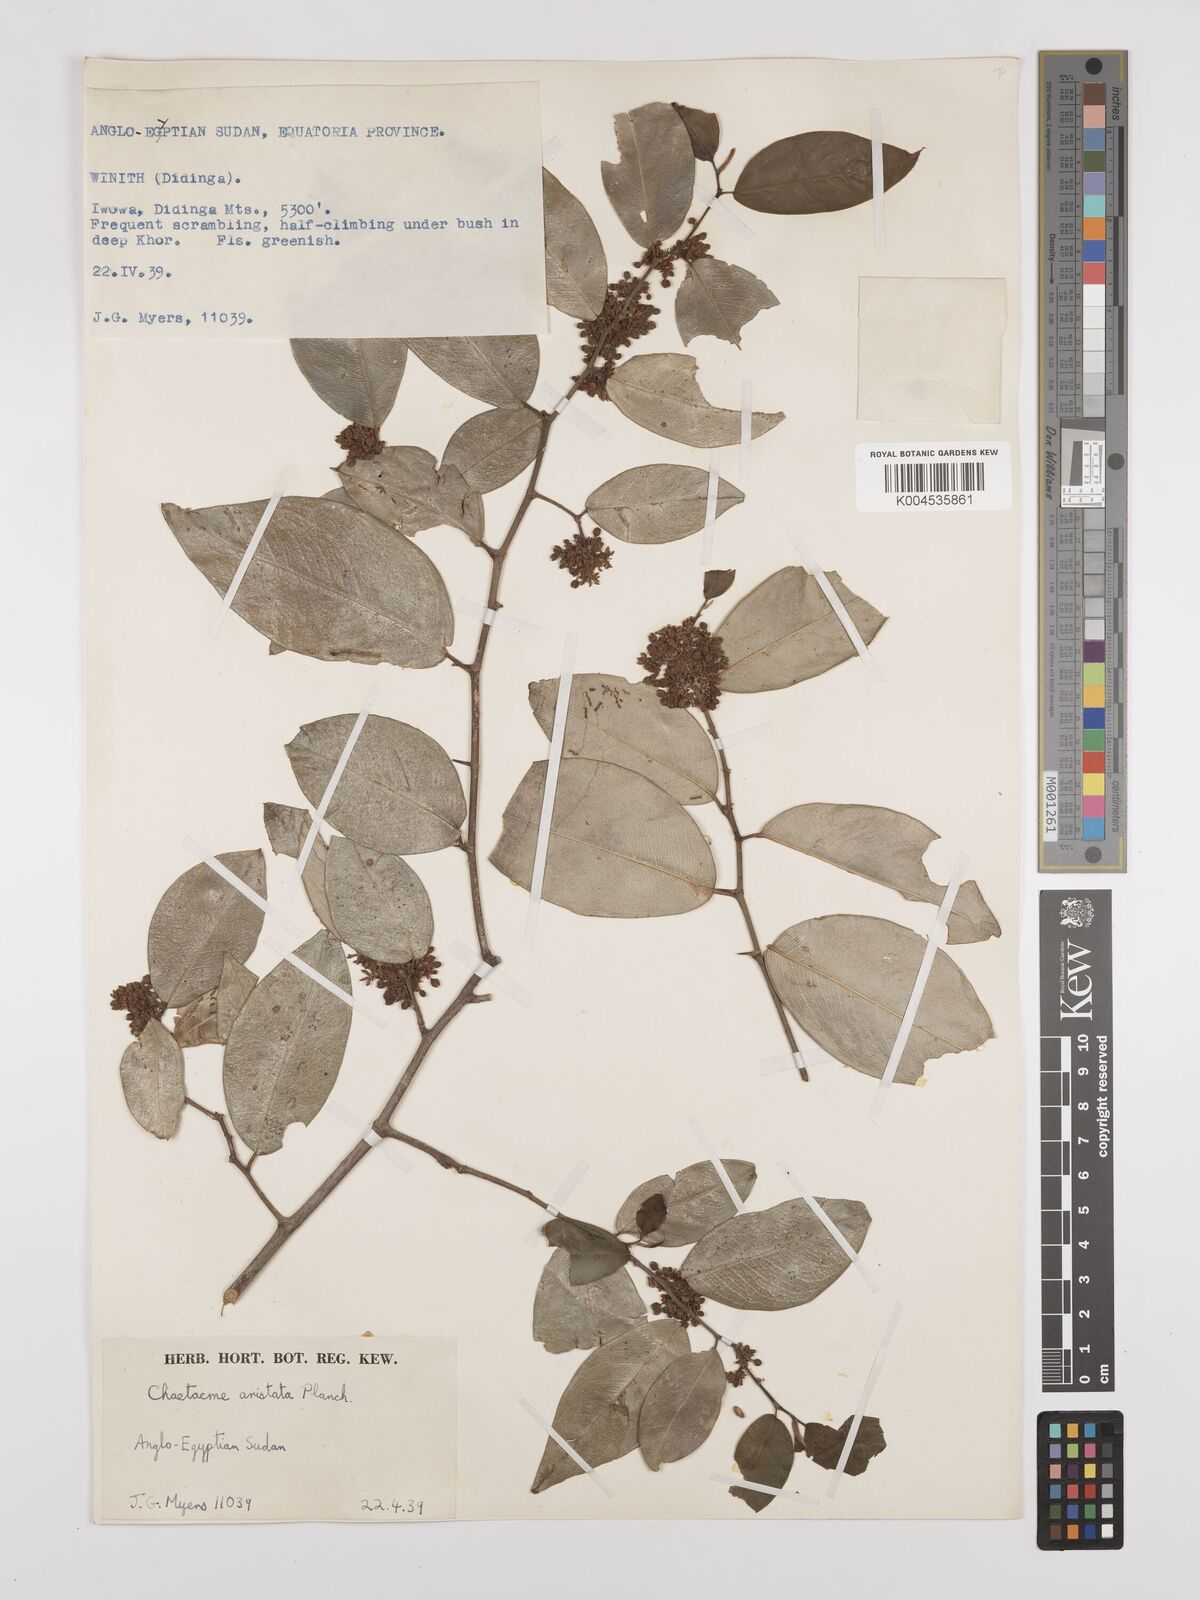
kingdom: Plantae
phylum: Tracheophyta
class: Magnoliopsida
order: Rosales
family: Cannabaceae
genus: Chaetachme
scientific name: Chaetachme aristata
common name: Thorny elm
